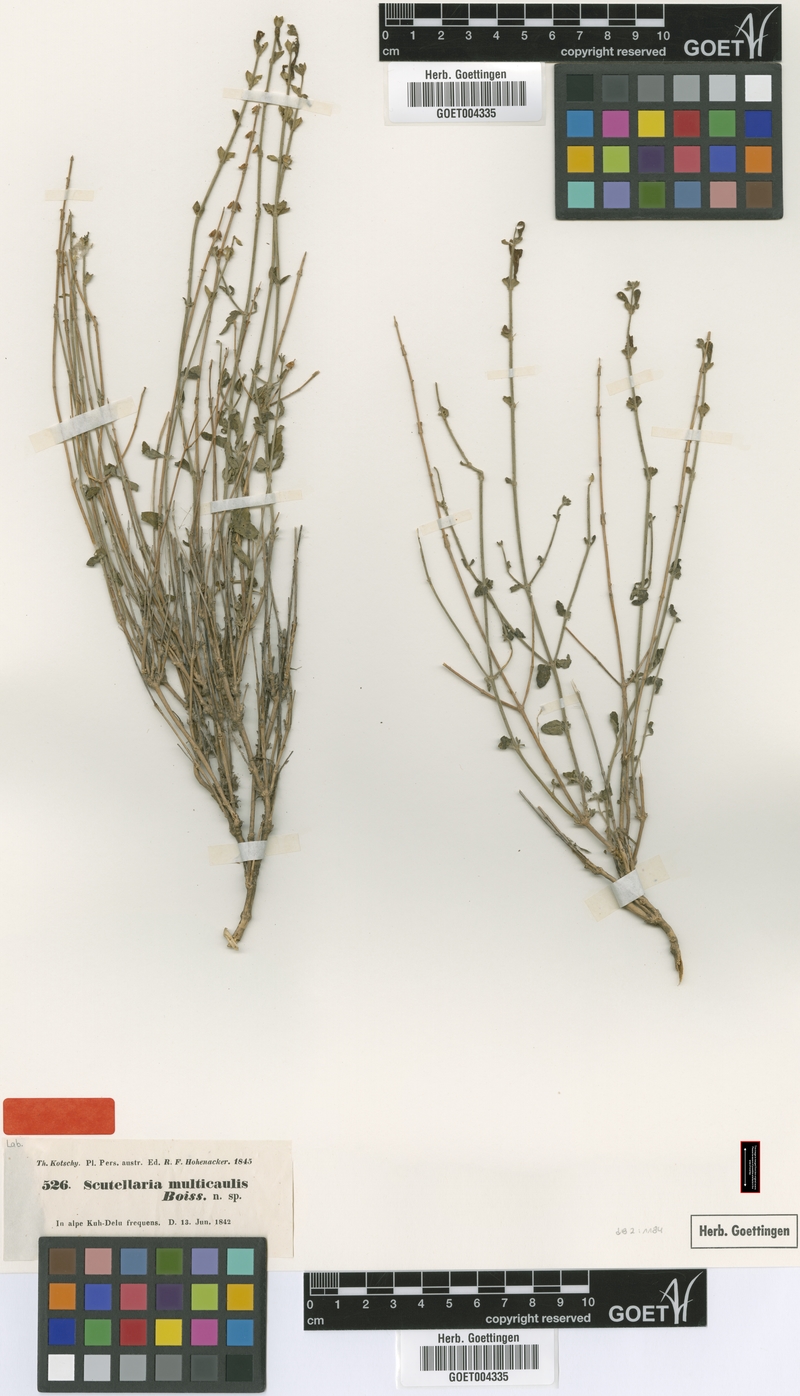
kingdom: Plantae
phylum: Tracheophyta
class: Magnoliopsida
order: Lamiales
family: Lamiaceae
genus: Scutellaria
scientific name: Scutellaria multicaulis
